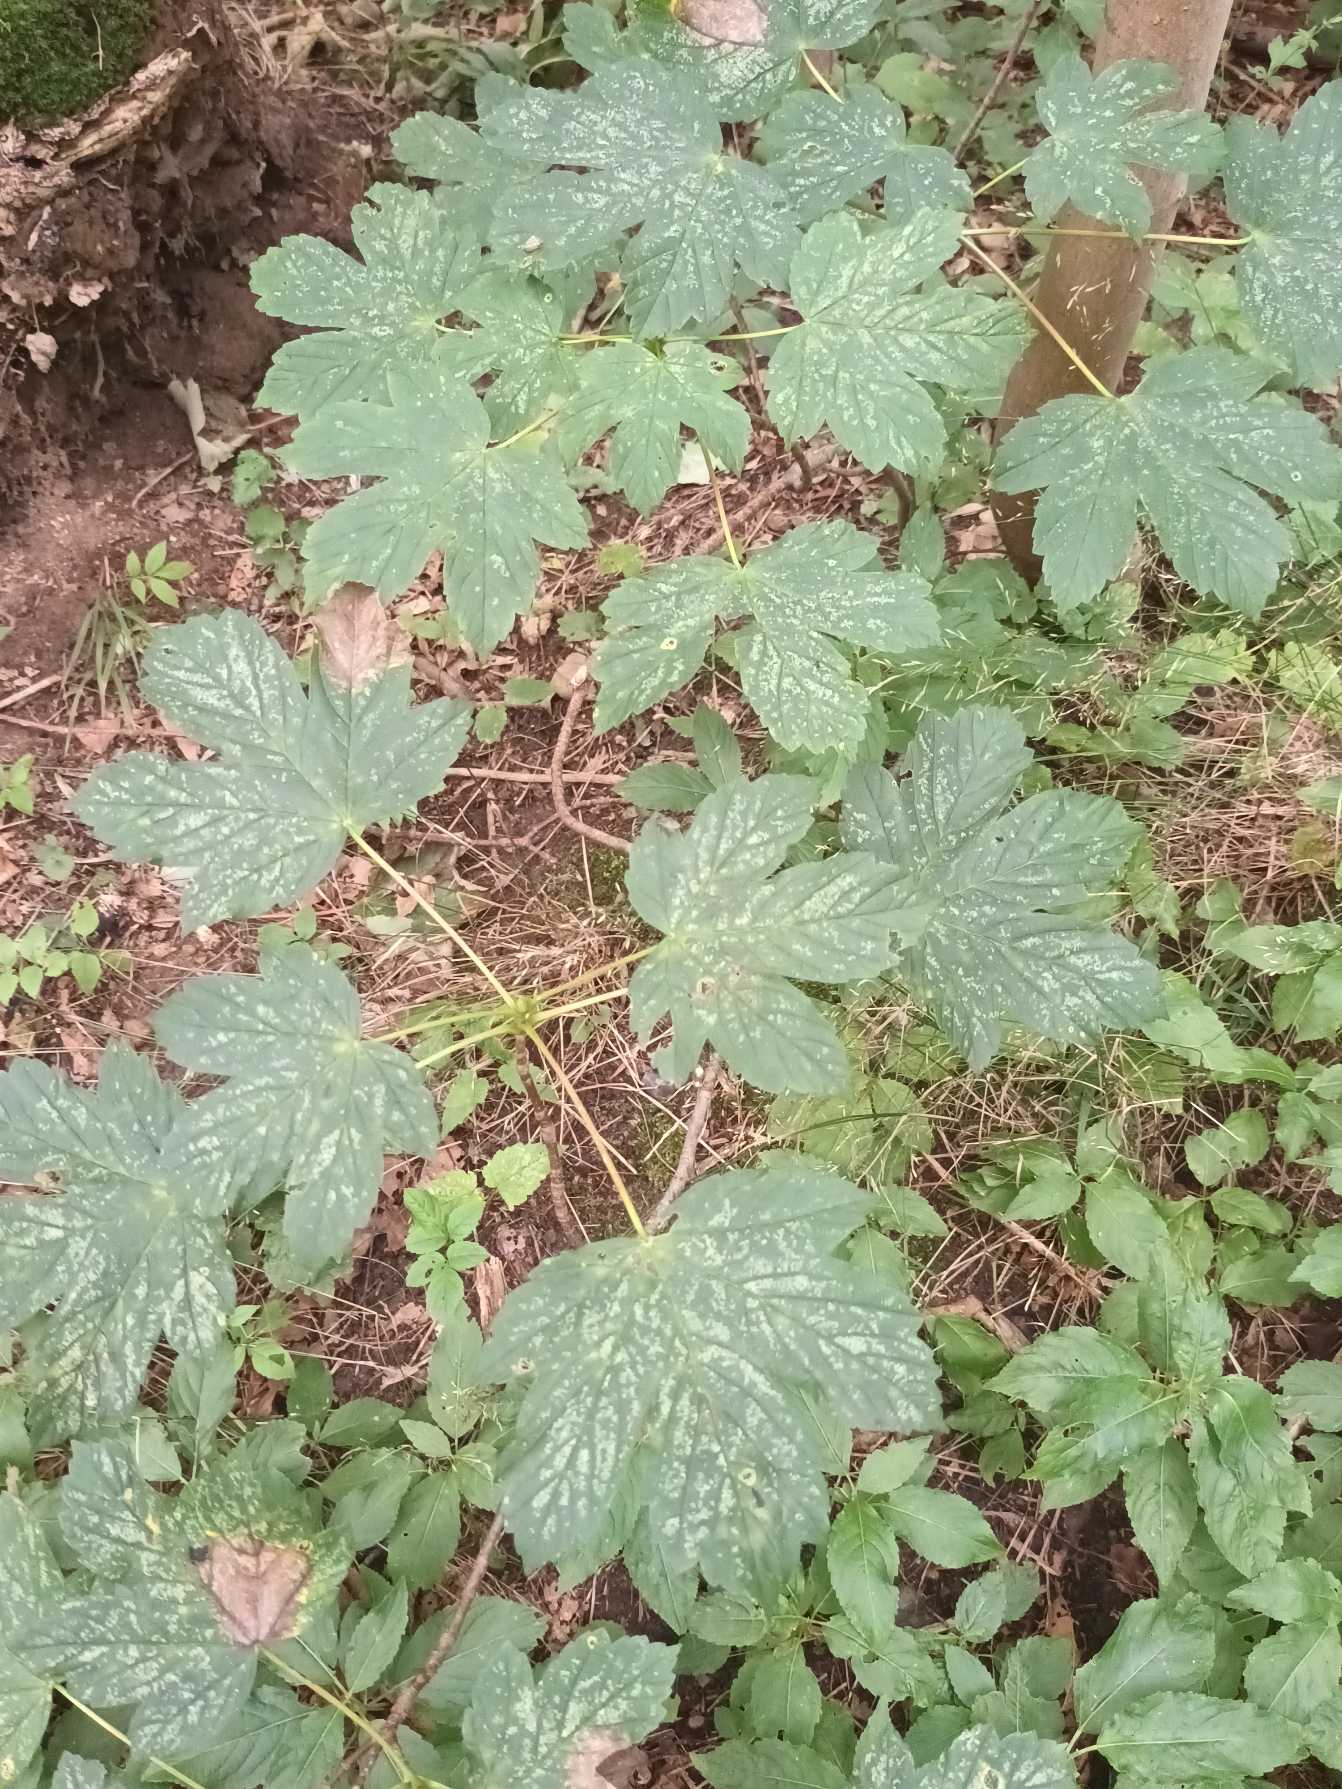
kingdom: Plantae
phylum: Tracheophyta
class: Magnoliopsida
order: Sapindales
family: Sapindaceae
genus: Acer
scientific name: Acer pseudoplatanus
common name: Ahorn
